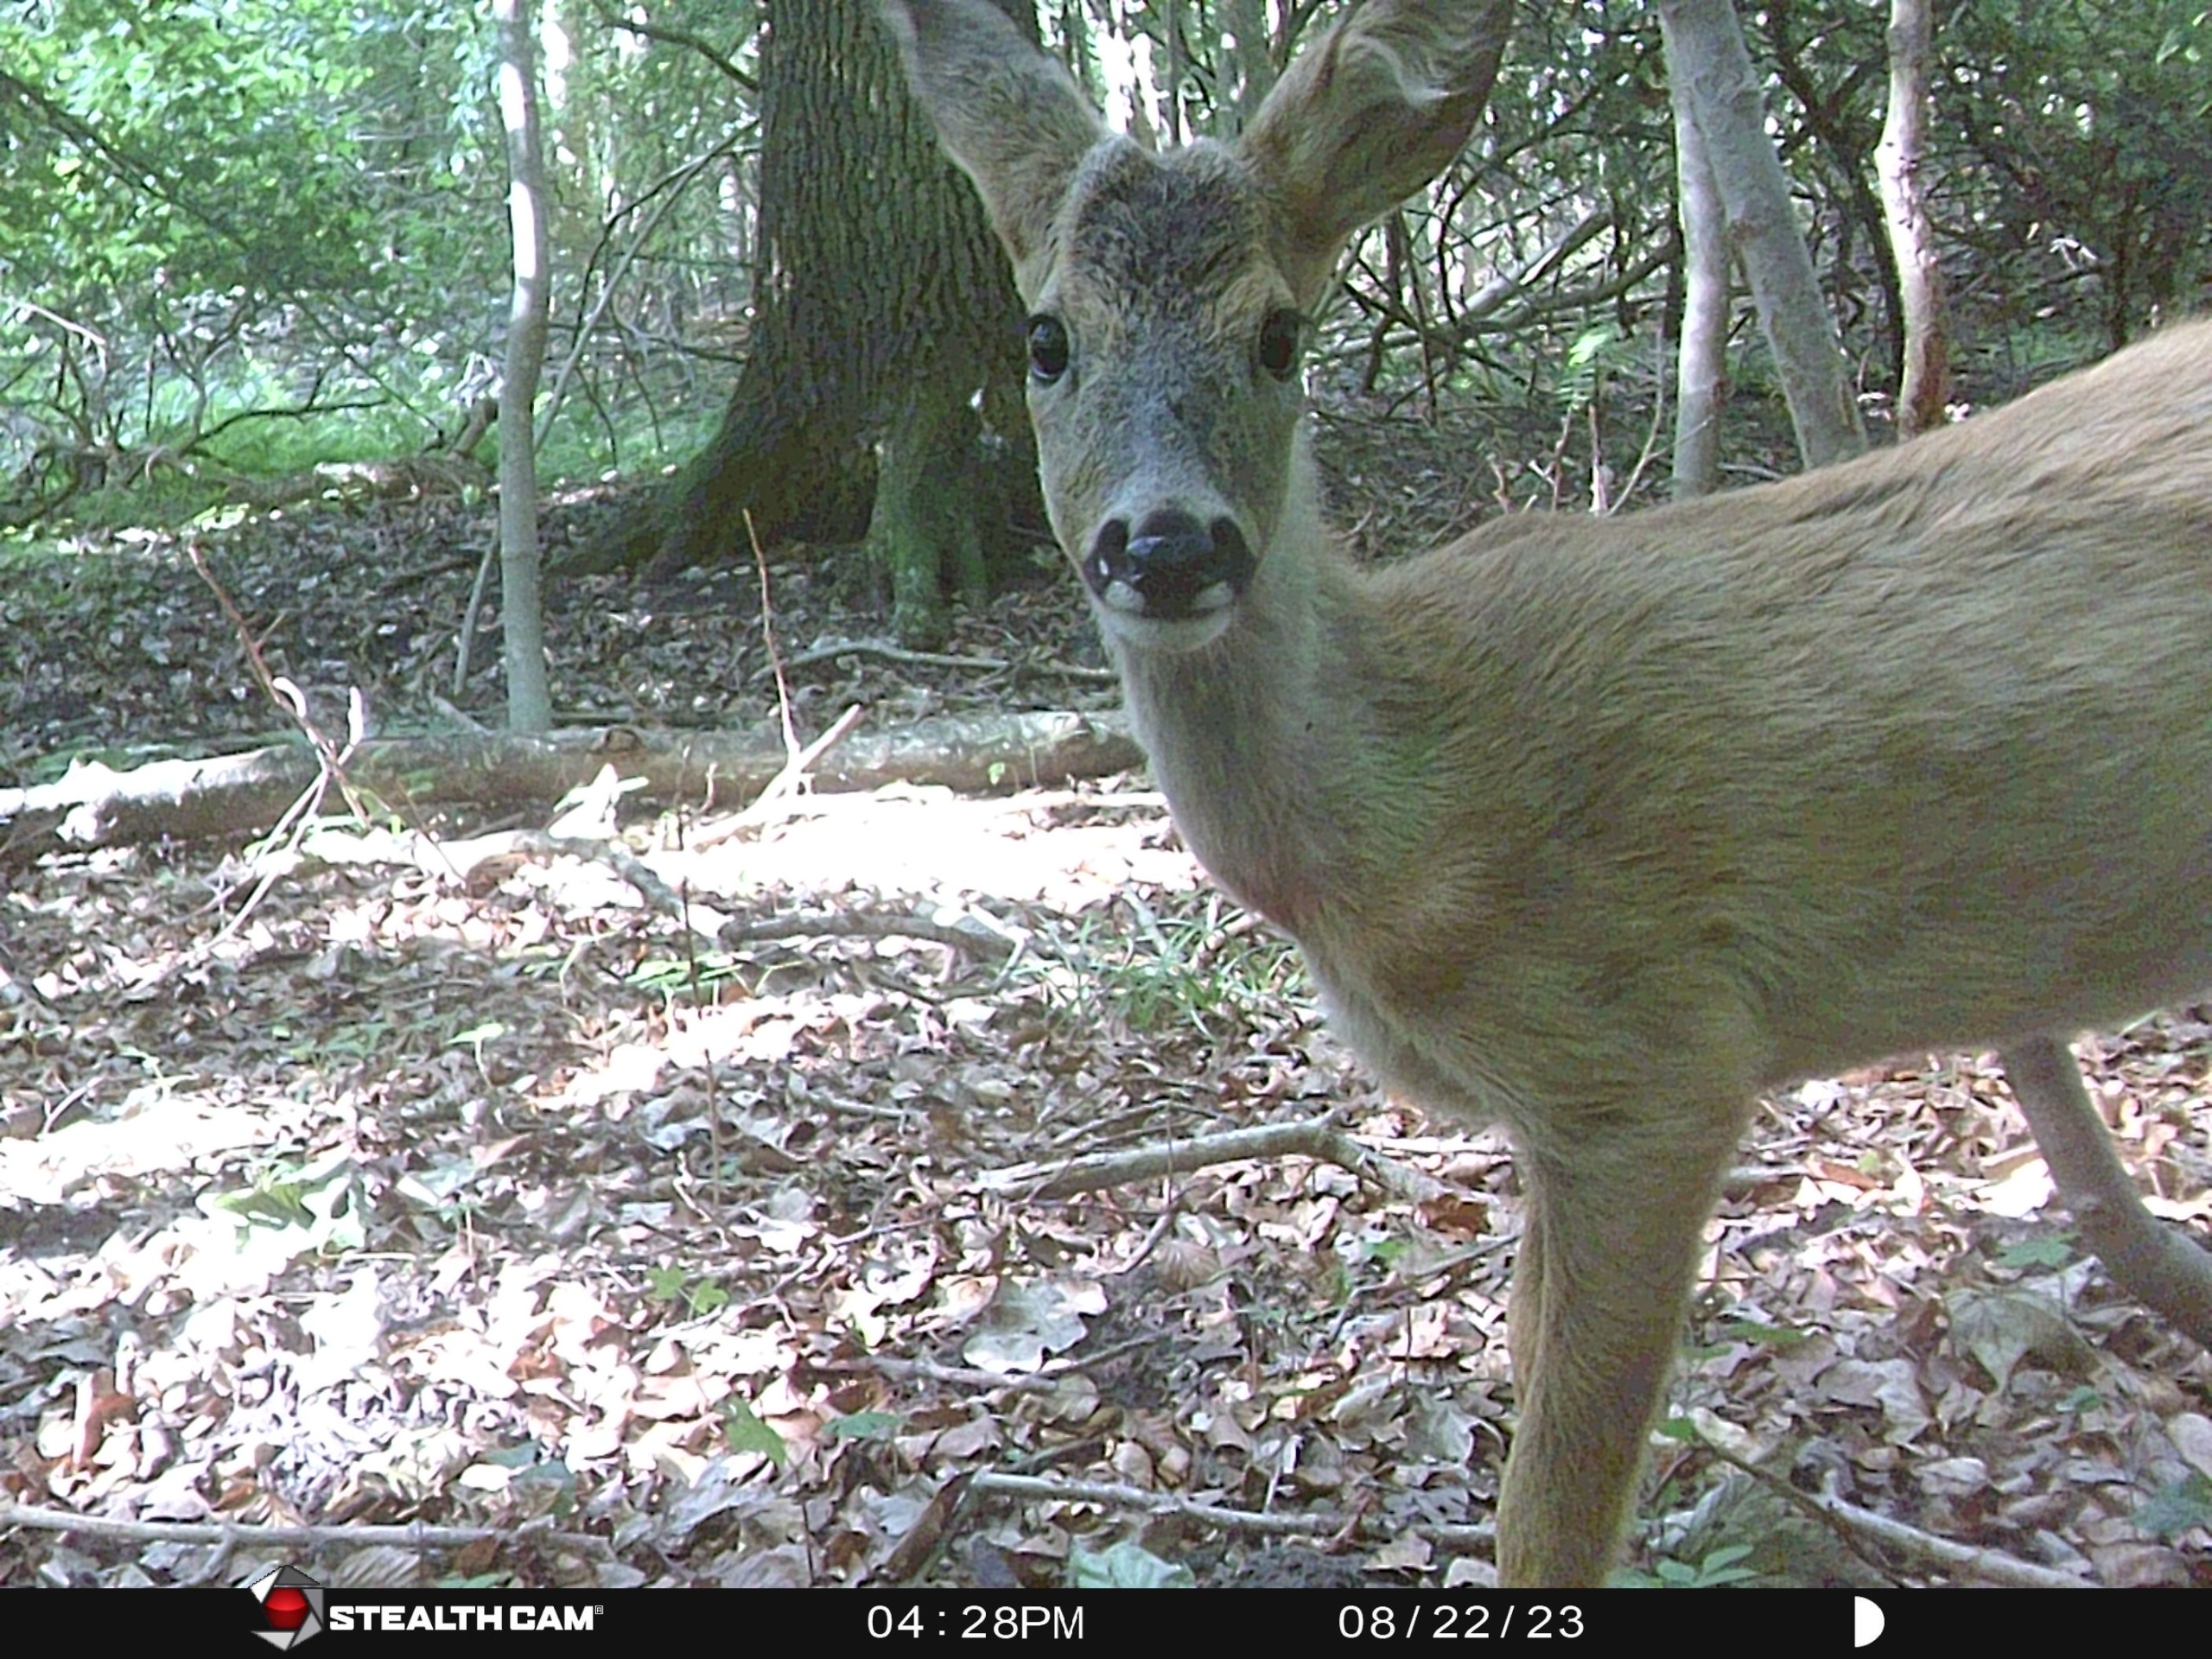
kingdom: Animalia
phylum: Chordata
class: Mammalia
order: Artiodactyla
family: Cervidae
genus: Capreolus
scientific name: Capreolus capreolus
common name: Rådyr
